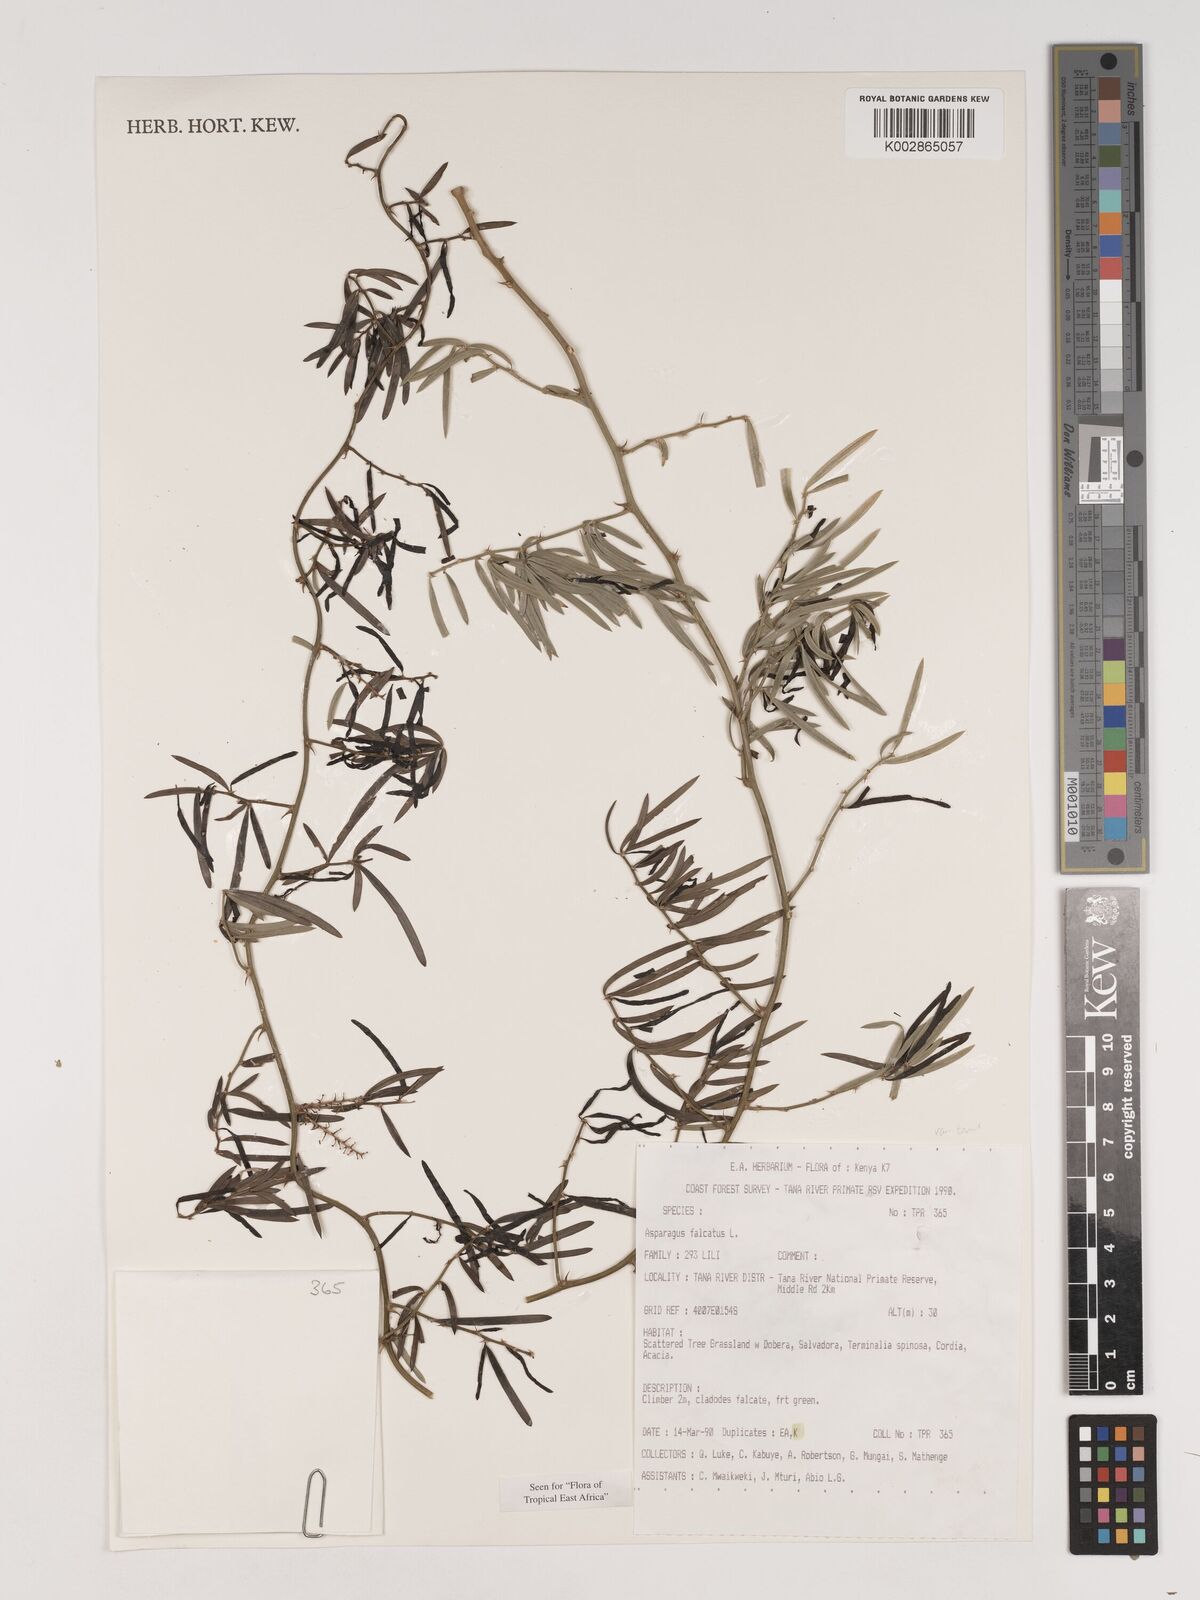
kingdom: Plantae
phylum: Tracheophyta
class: Liliopsida
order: Asparagales
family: Asparagaceae
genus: Asparagus
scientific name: Asparagus falcatus
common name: Asparagus
